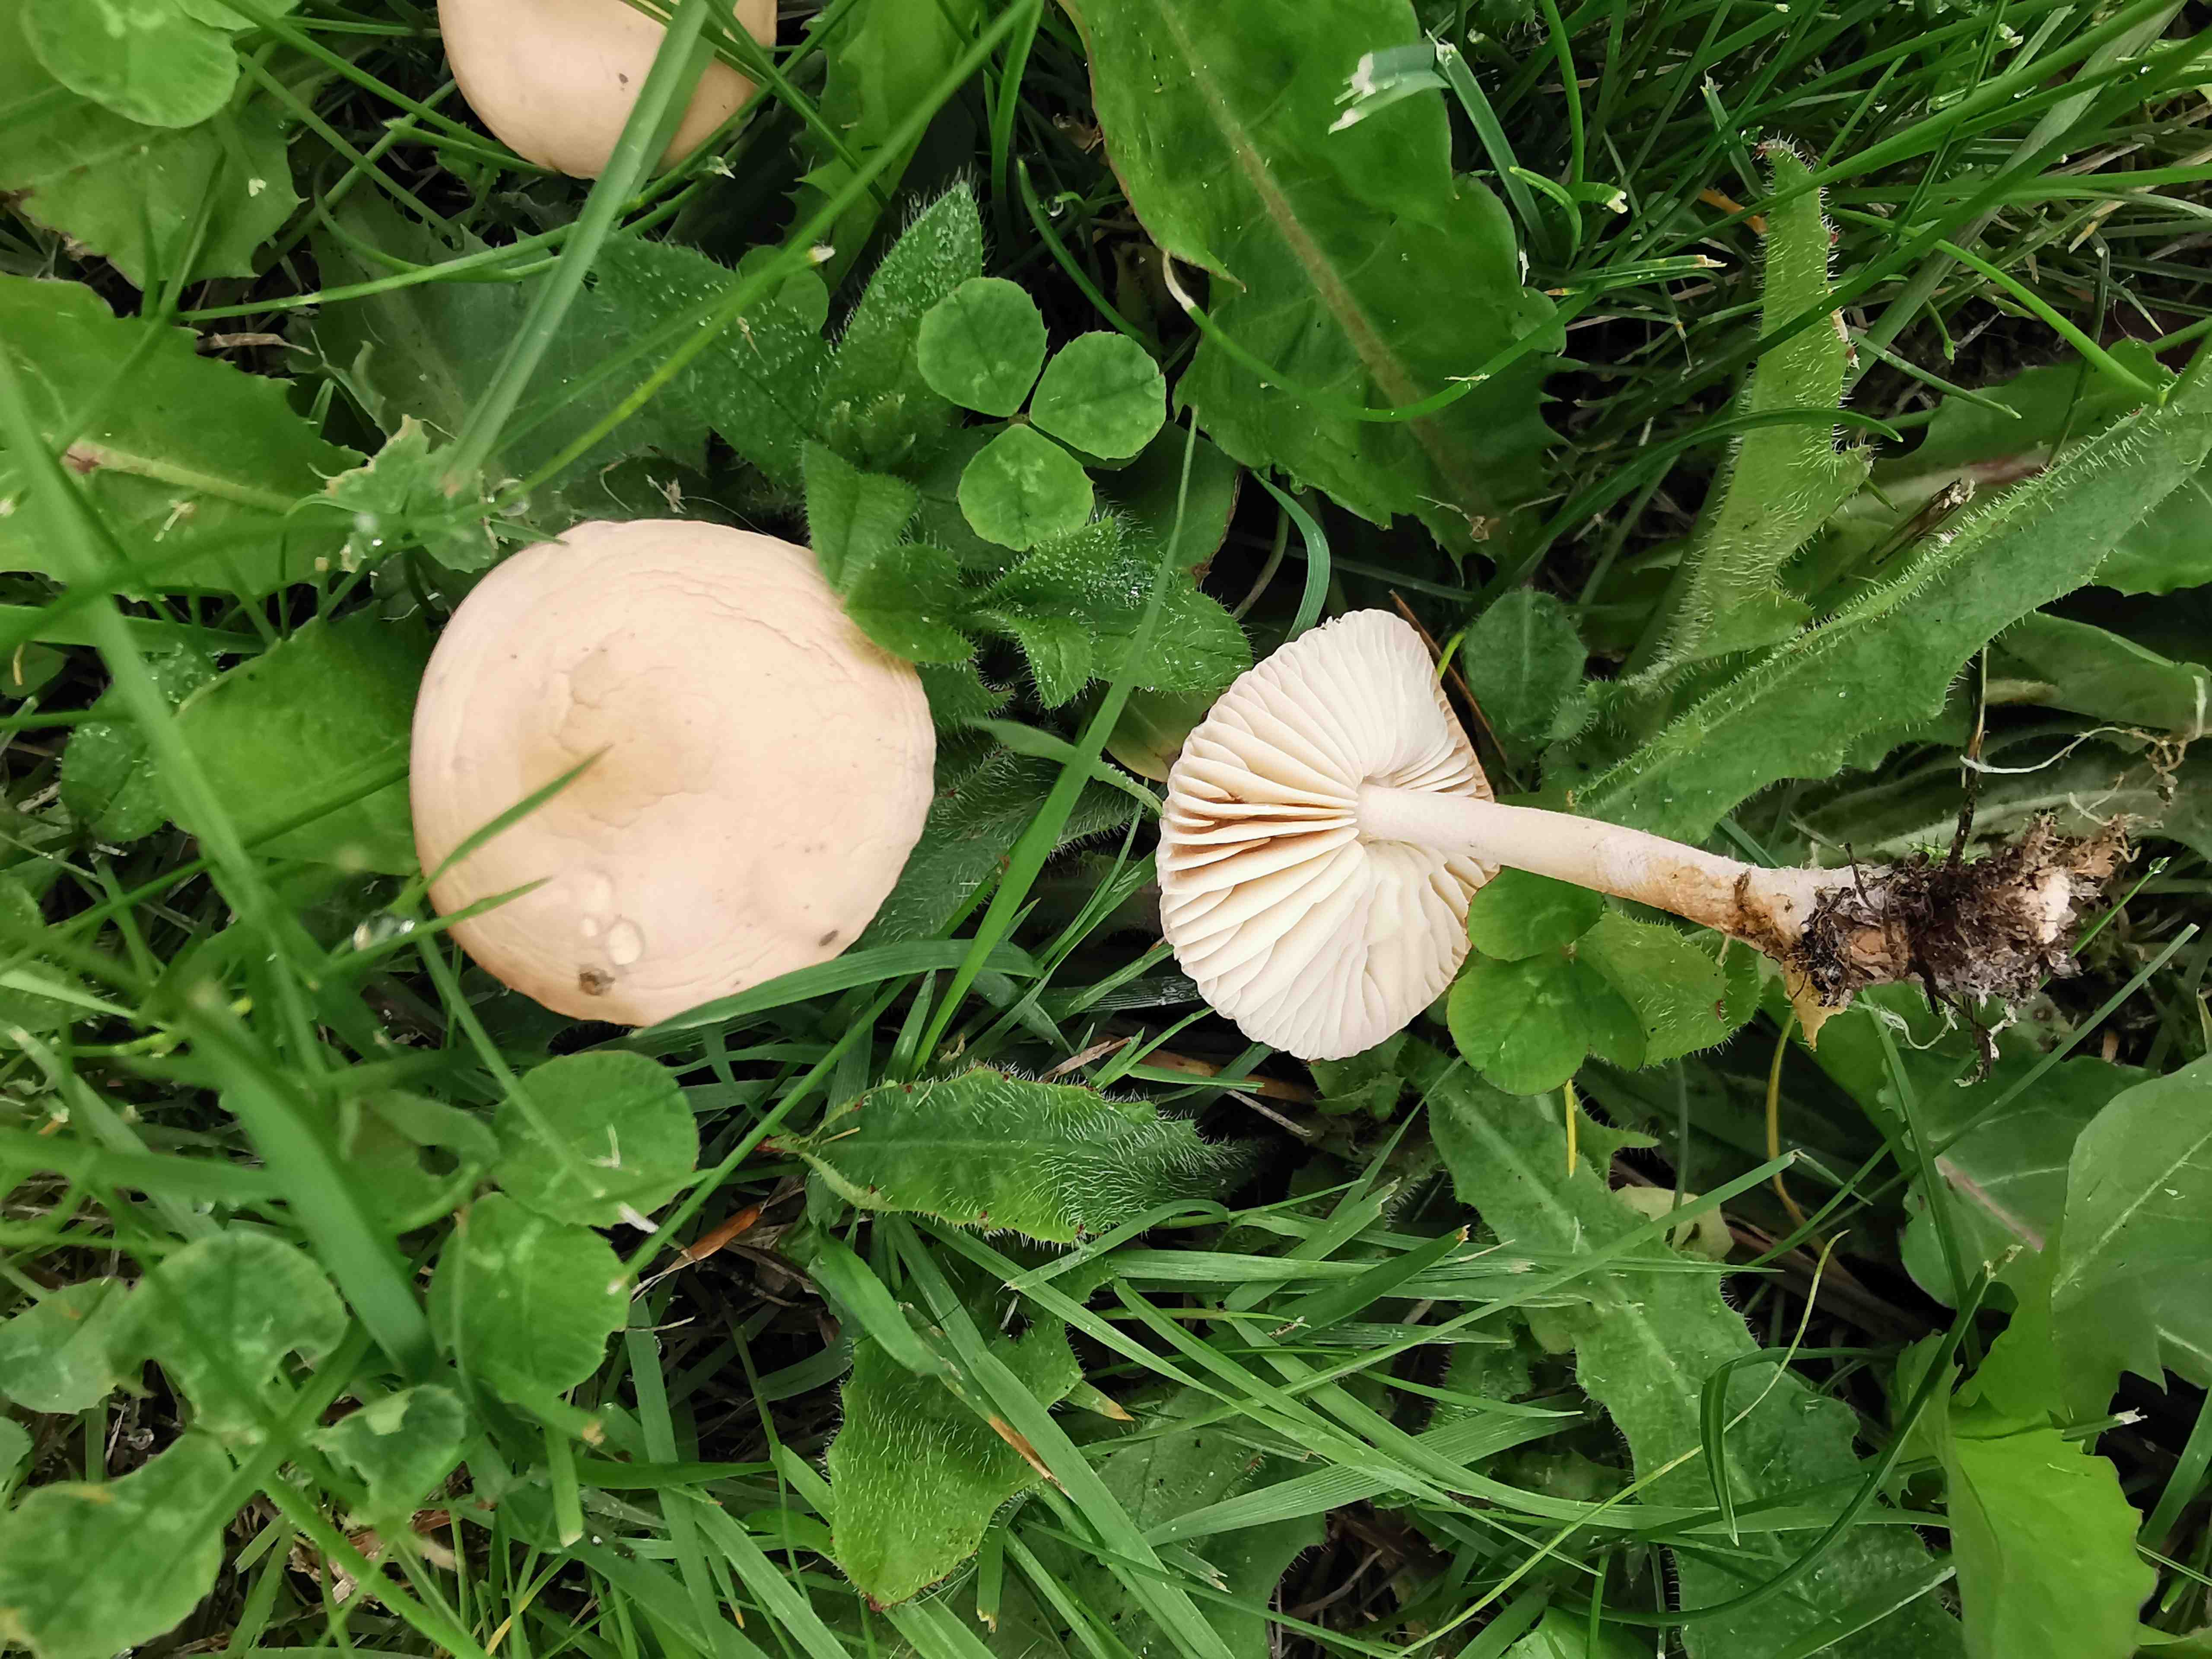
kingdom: Fungi
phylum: Basidiomycota
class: Agaricomycetes
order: Agaricales
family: Marasmiaceae
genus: Marasmius
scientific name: Marasmius oreades
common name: elledans-bruskhat
